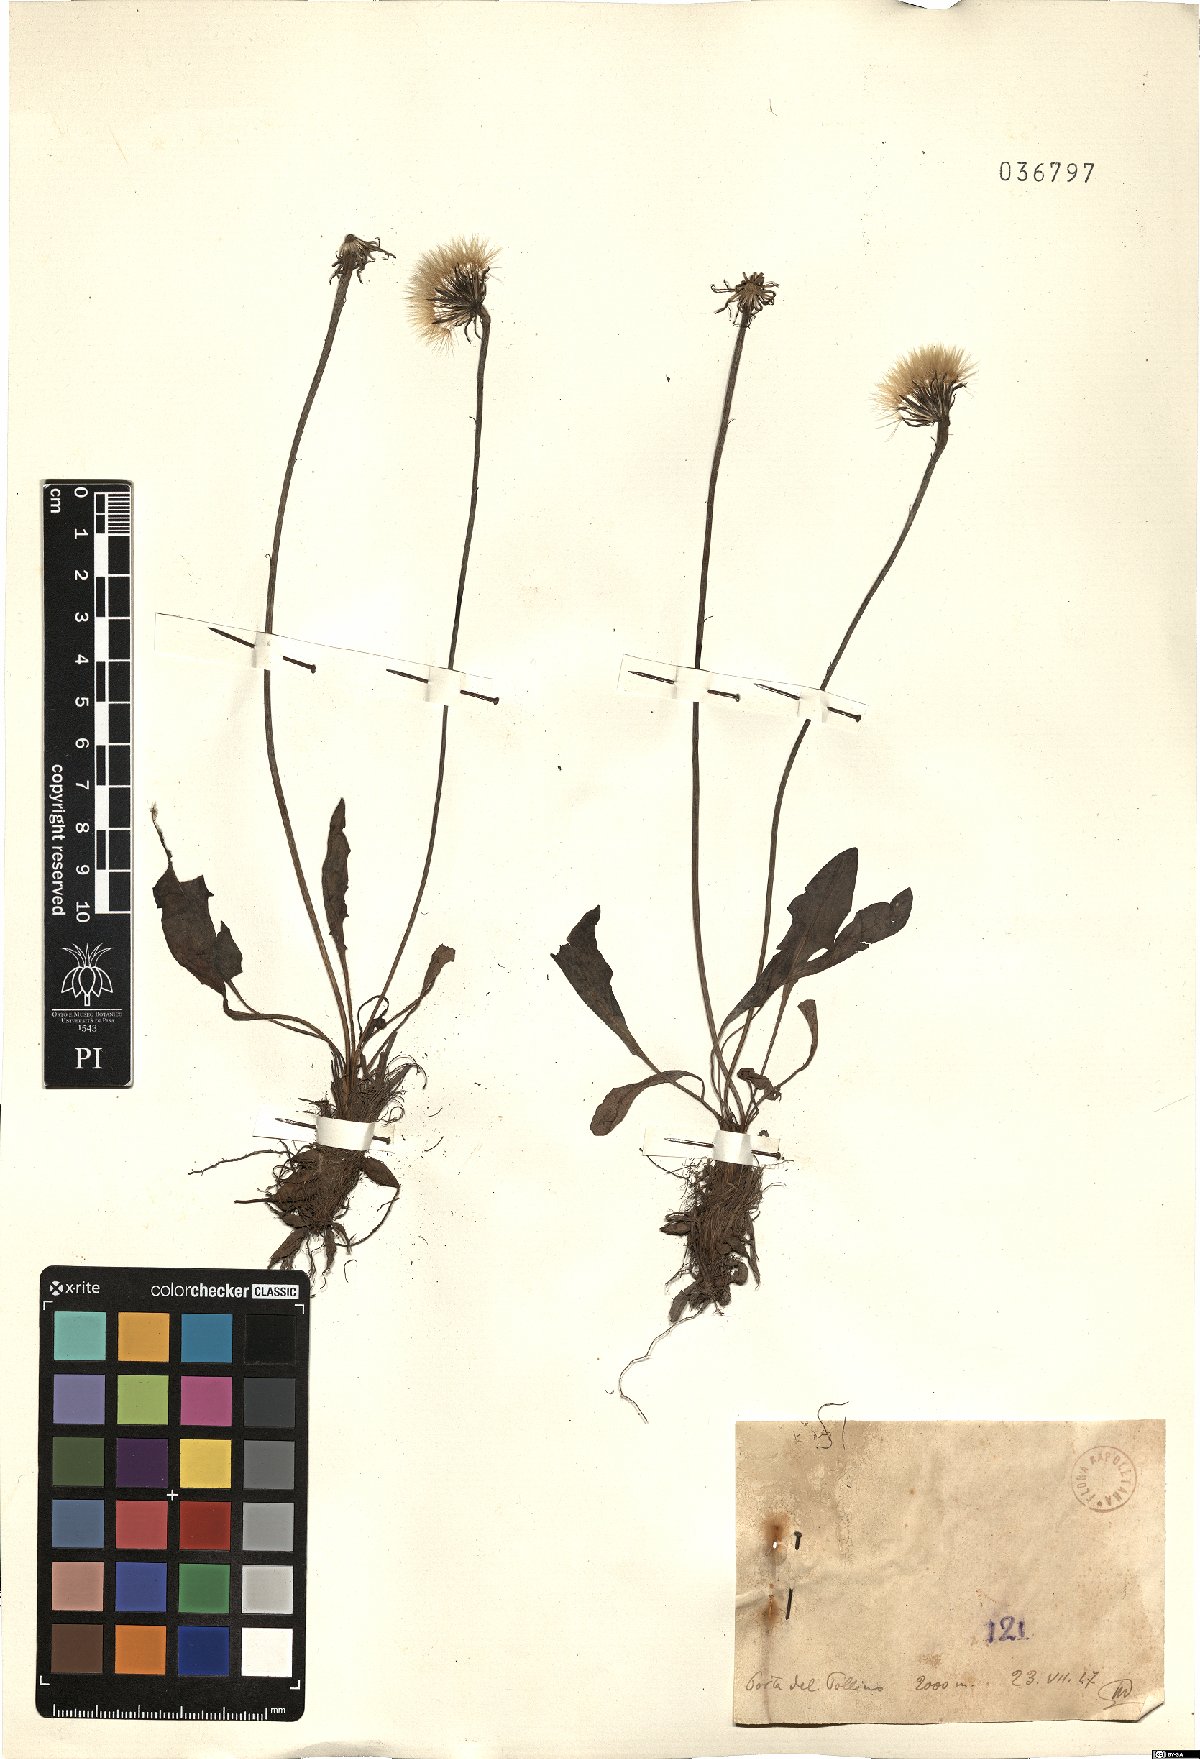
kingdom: Plantae
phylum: Tracheophyta
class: Magnoliopsida
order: Asterales
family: Asteraceae
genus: Filago
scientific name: Filago
